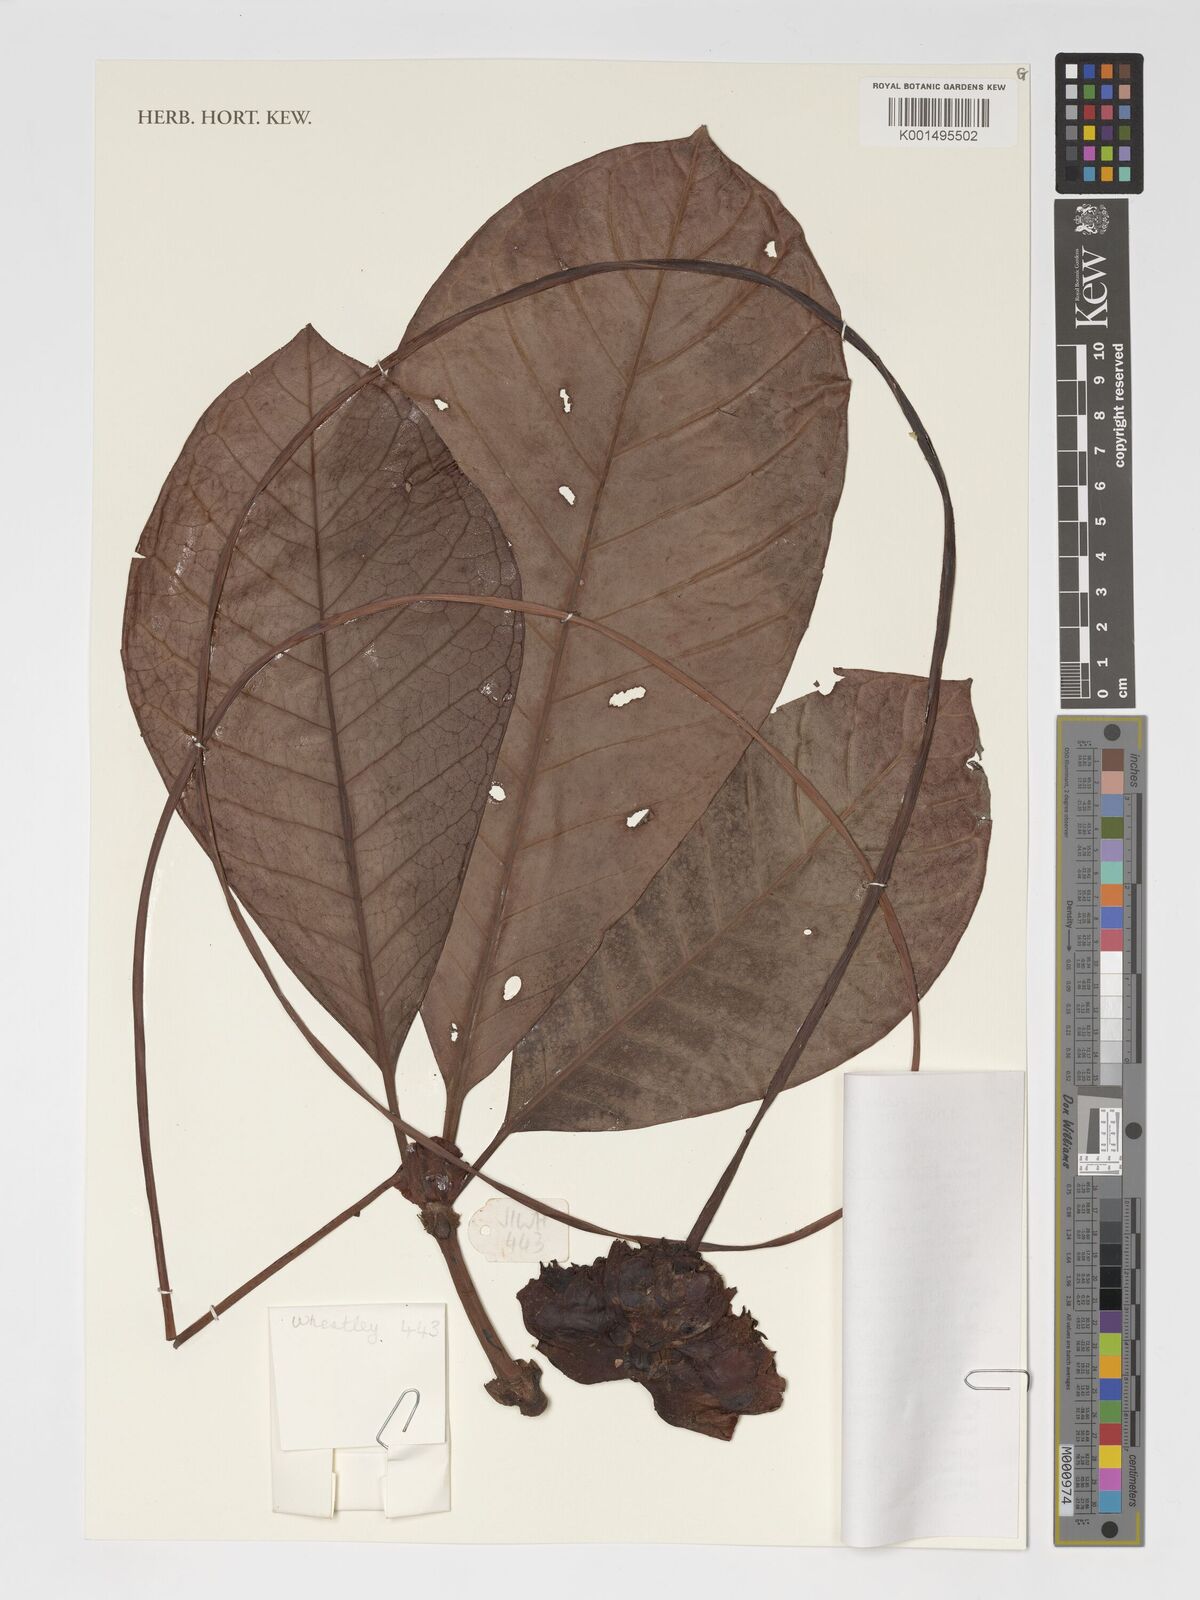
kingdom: Plantae
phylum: Tracheophyta
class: Magnoliopsida
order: Gentianales
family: Rubiaceae
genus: Psychotria
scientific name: Psychotria camptopus
